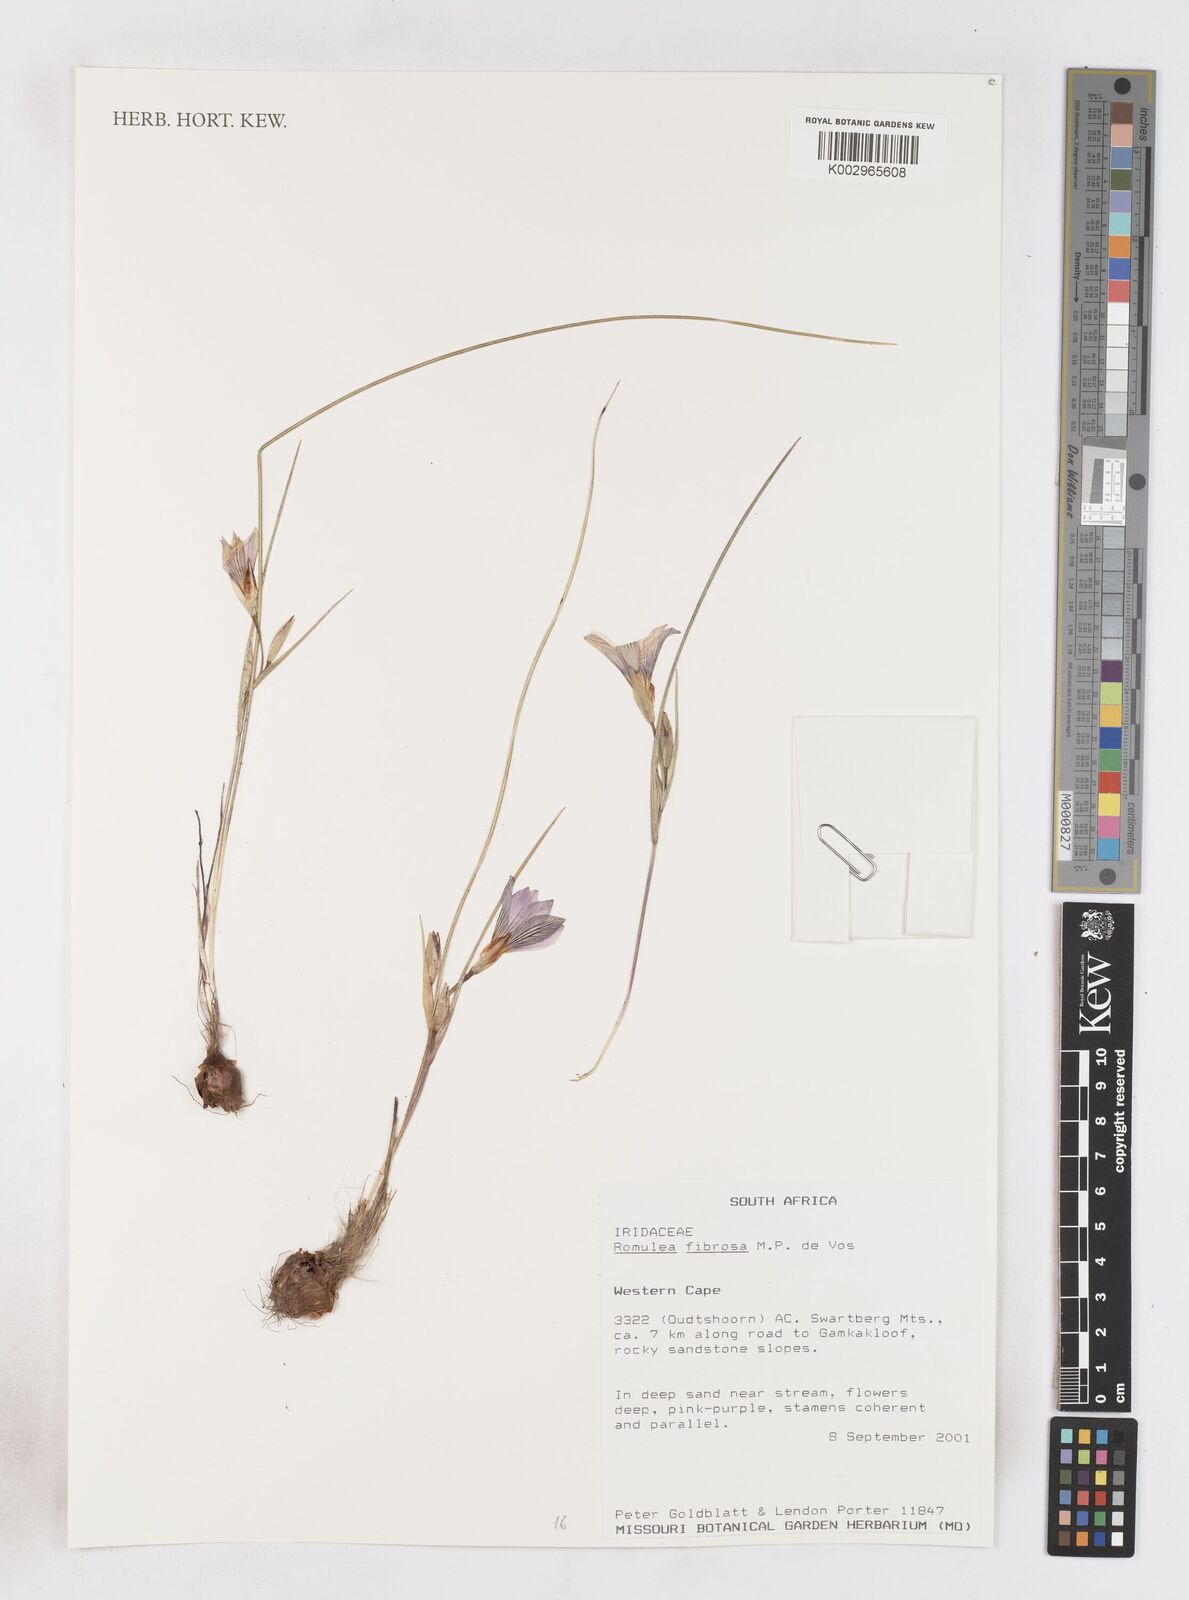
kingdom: Plantae
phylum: Tracheophyta
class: Liliopsida
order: Asparagales
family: Iridaceae
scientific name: Iridaceae
